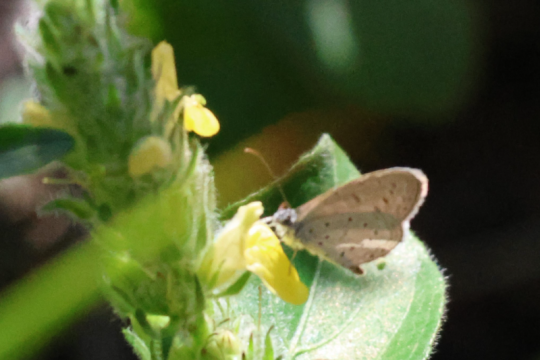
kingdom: Animalia
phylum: Arthropoda
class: Insecta
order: Lepidoptera
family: Lycaenidae
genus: Zizula
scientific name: Zizula hylax
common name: Tiny Grass Blue
